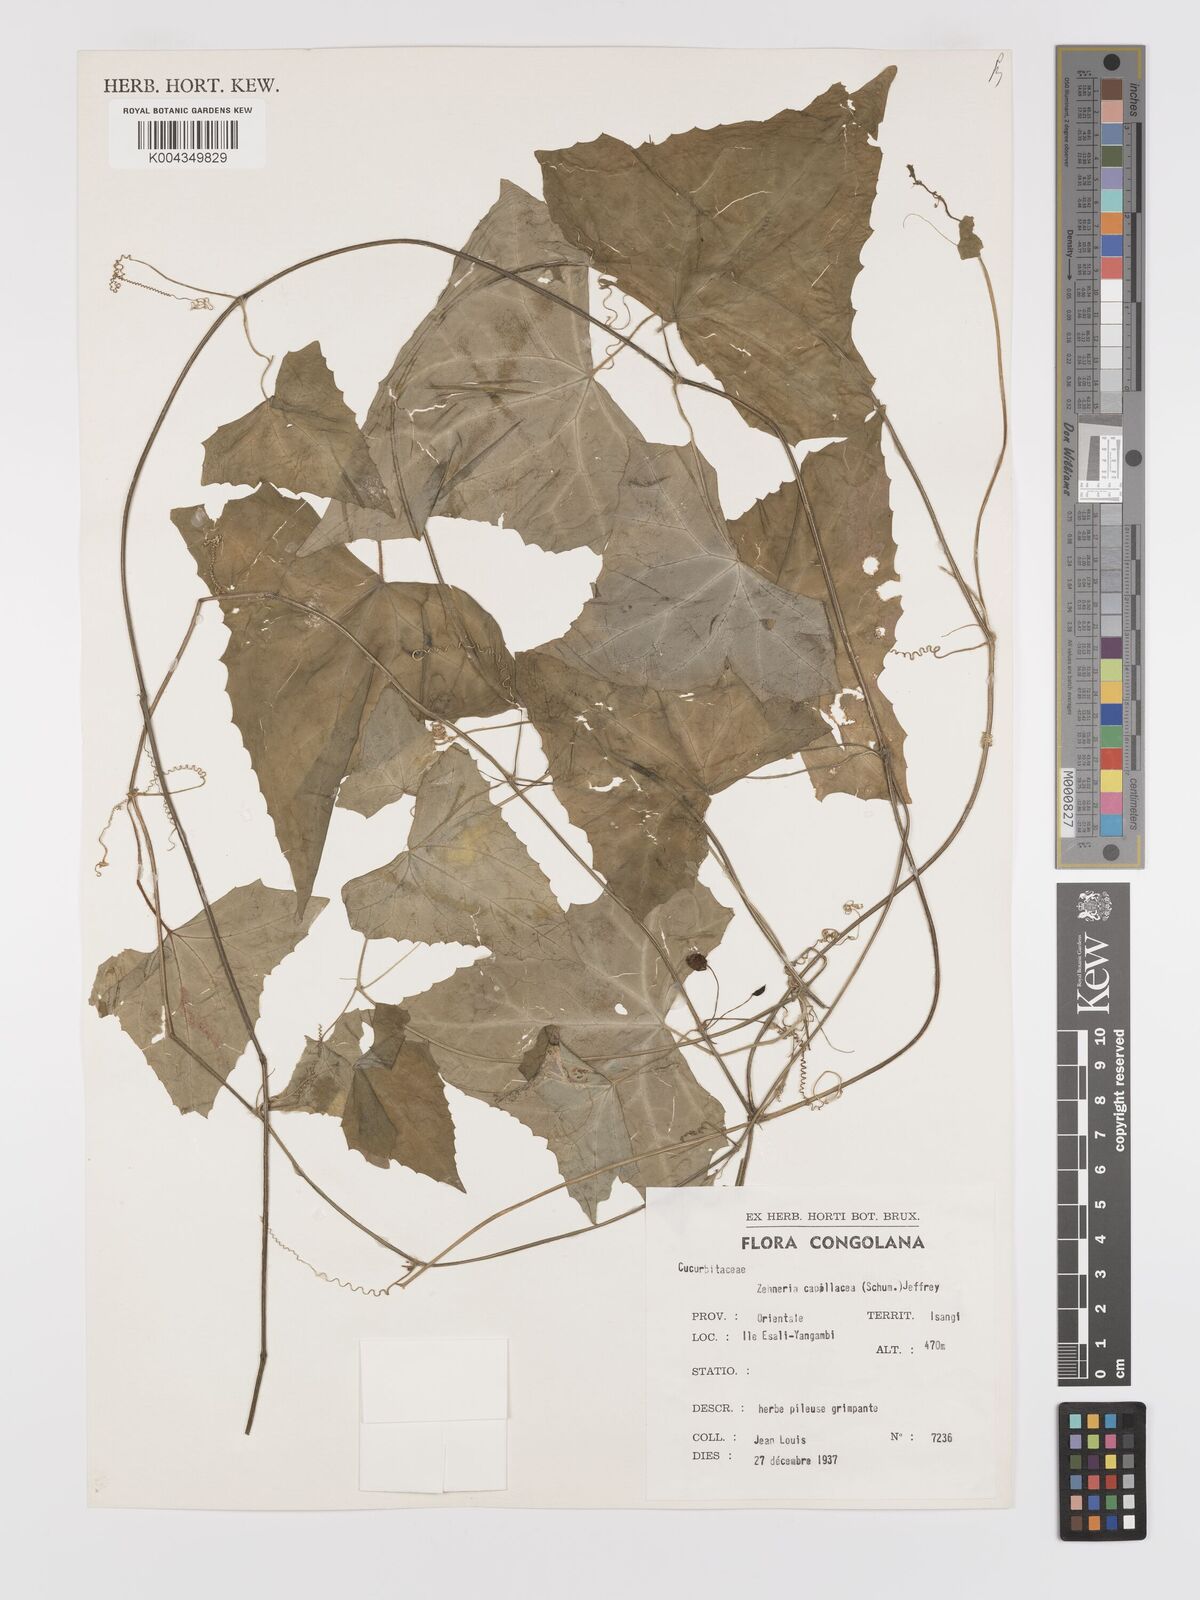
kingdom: Plantae
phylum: Tracheophyta
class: Magnoliopsida
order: Cucurbitales
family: Cucurbitaceae
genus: Zehneria
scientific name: Zehneria capillacea
